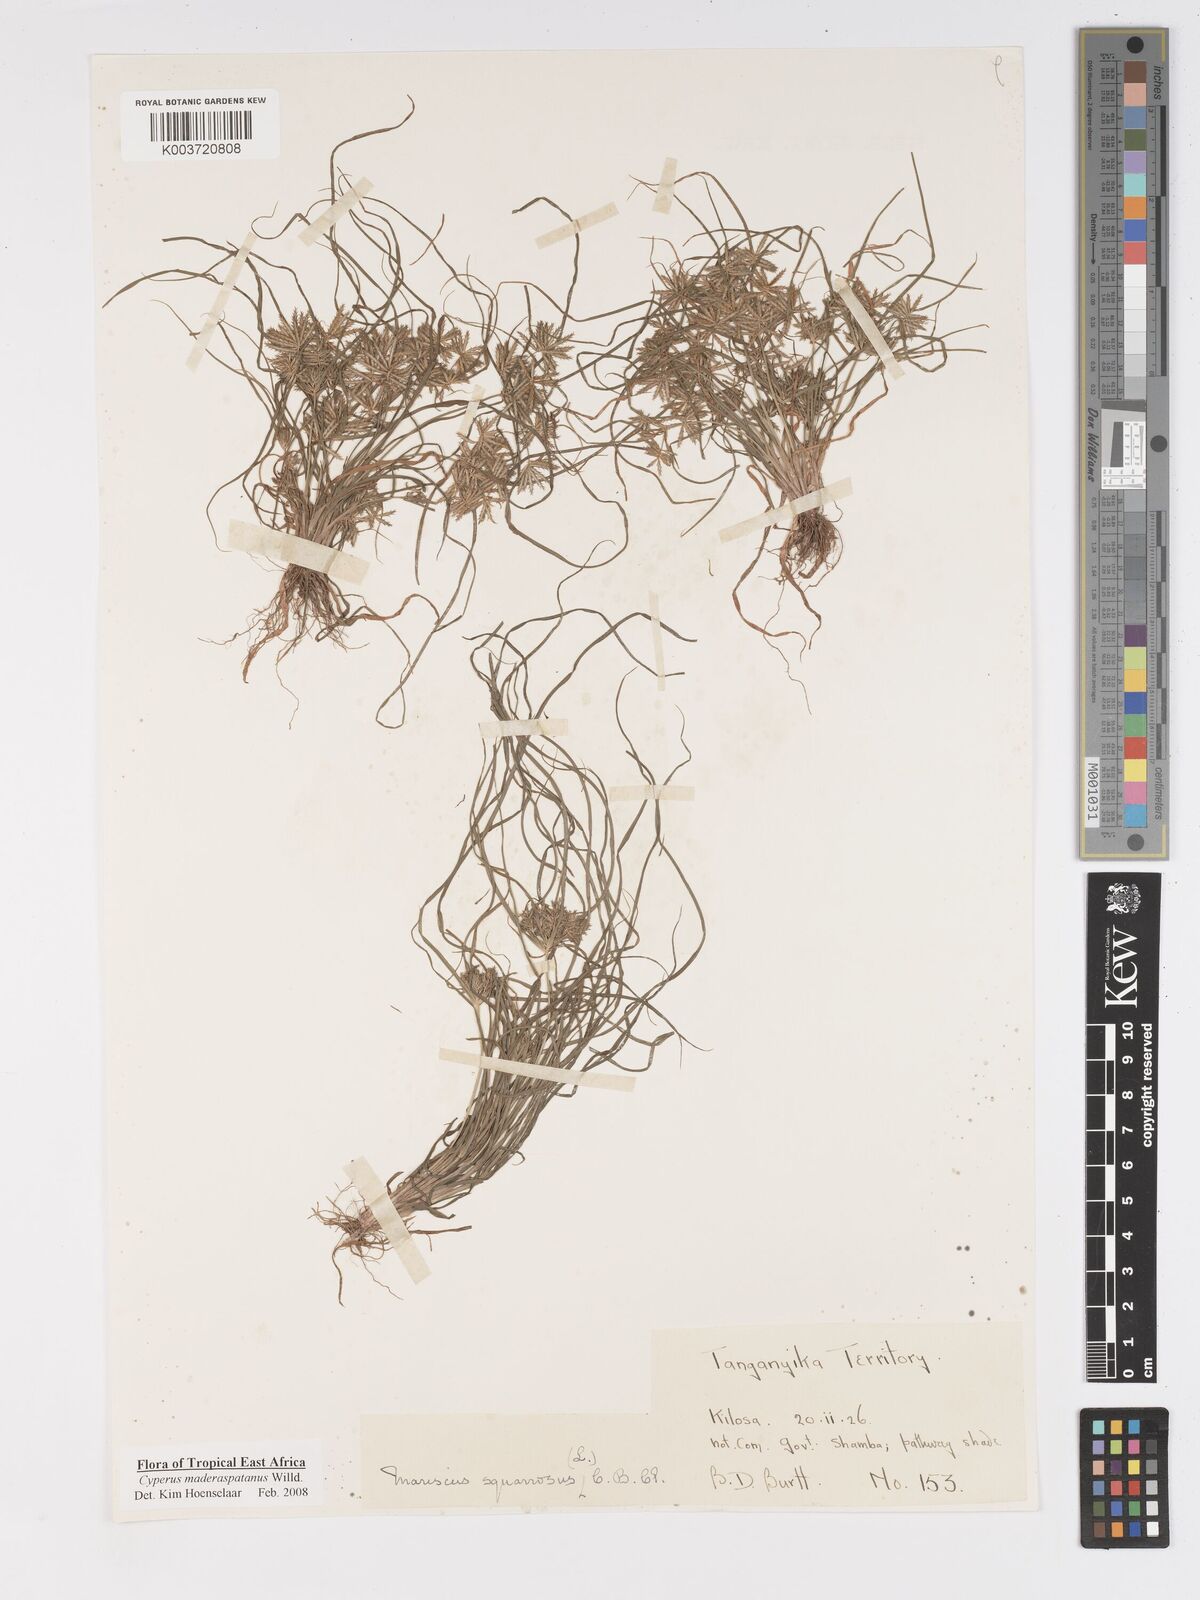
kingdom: Plantae
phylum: Tracheophyta
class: Liliopsida
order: Poales
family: Cyperaceae
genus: Cyperus
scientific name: Cyperus maderaspatanus
